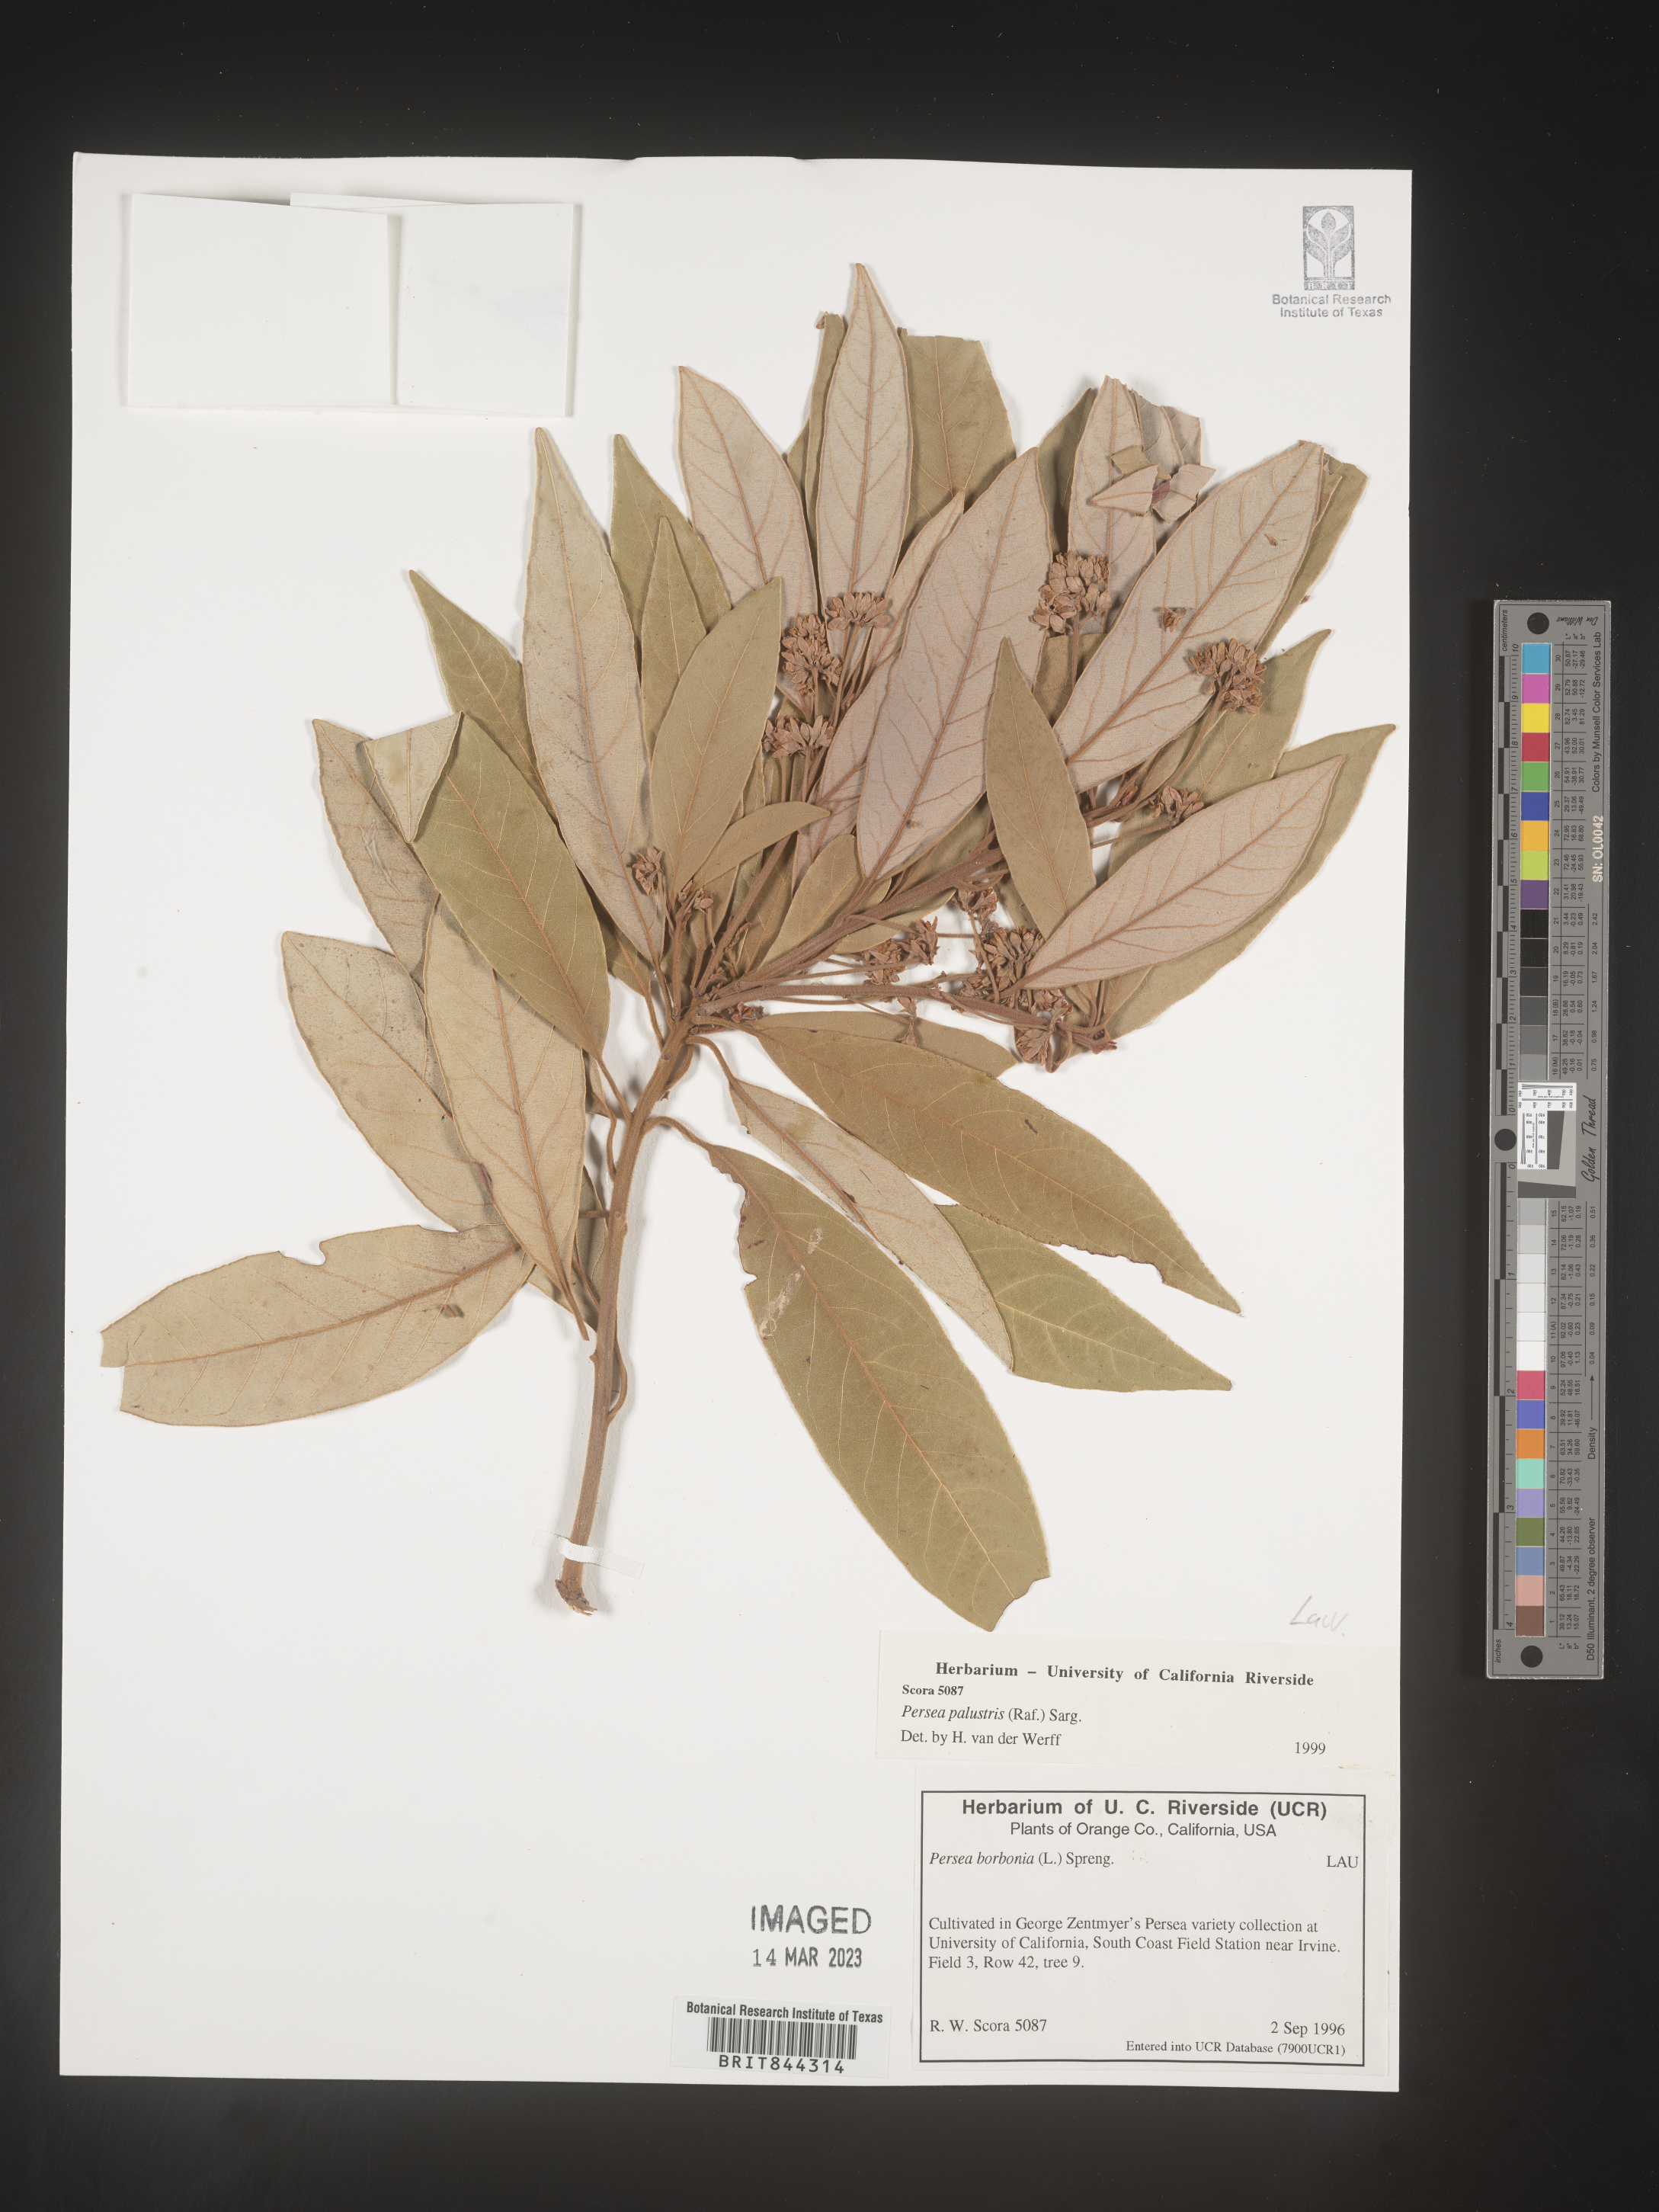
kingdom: Plantae
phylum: Tracheophyta
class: Magnoliopsida
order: Laurales
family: Lauraceae
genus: Persea
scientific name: Persea palustris
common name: Swampbay
